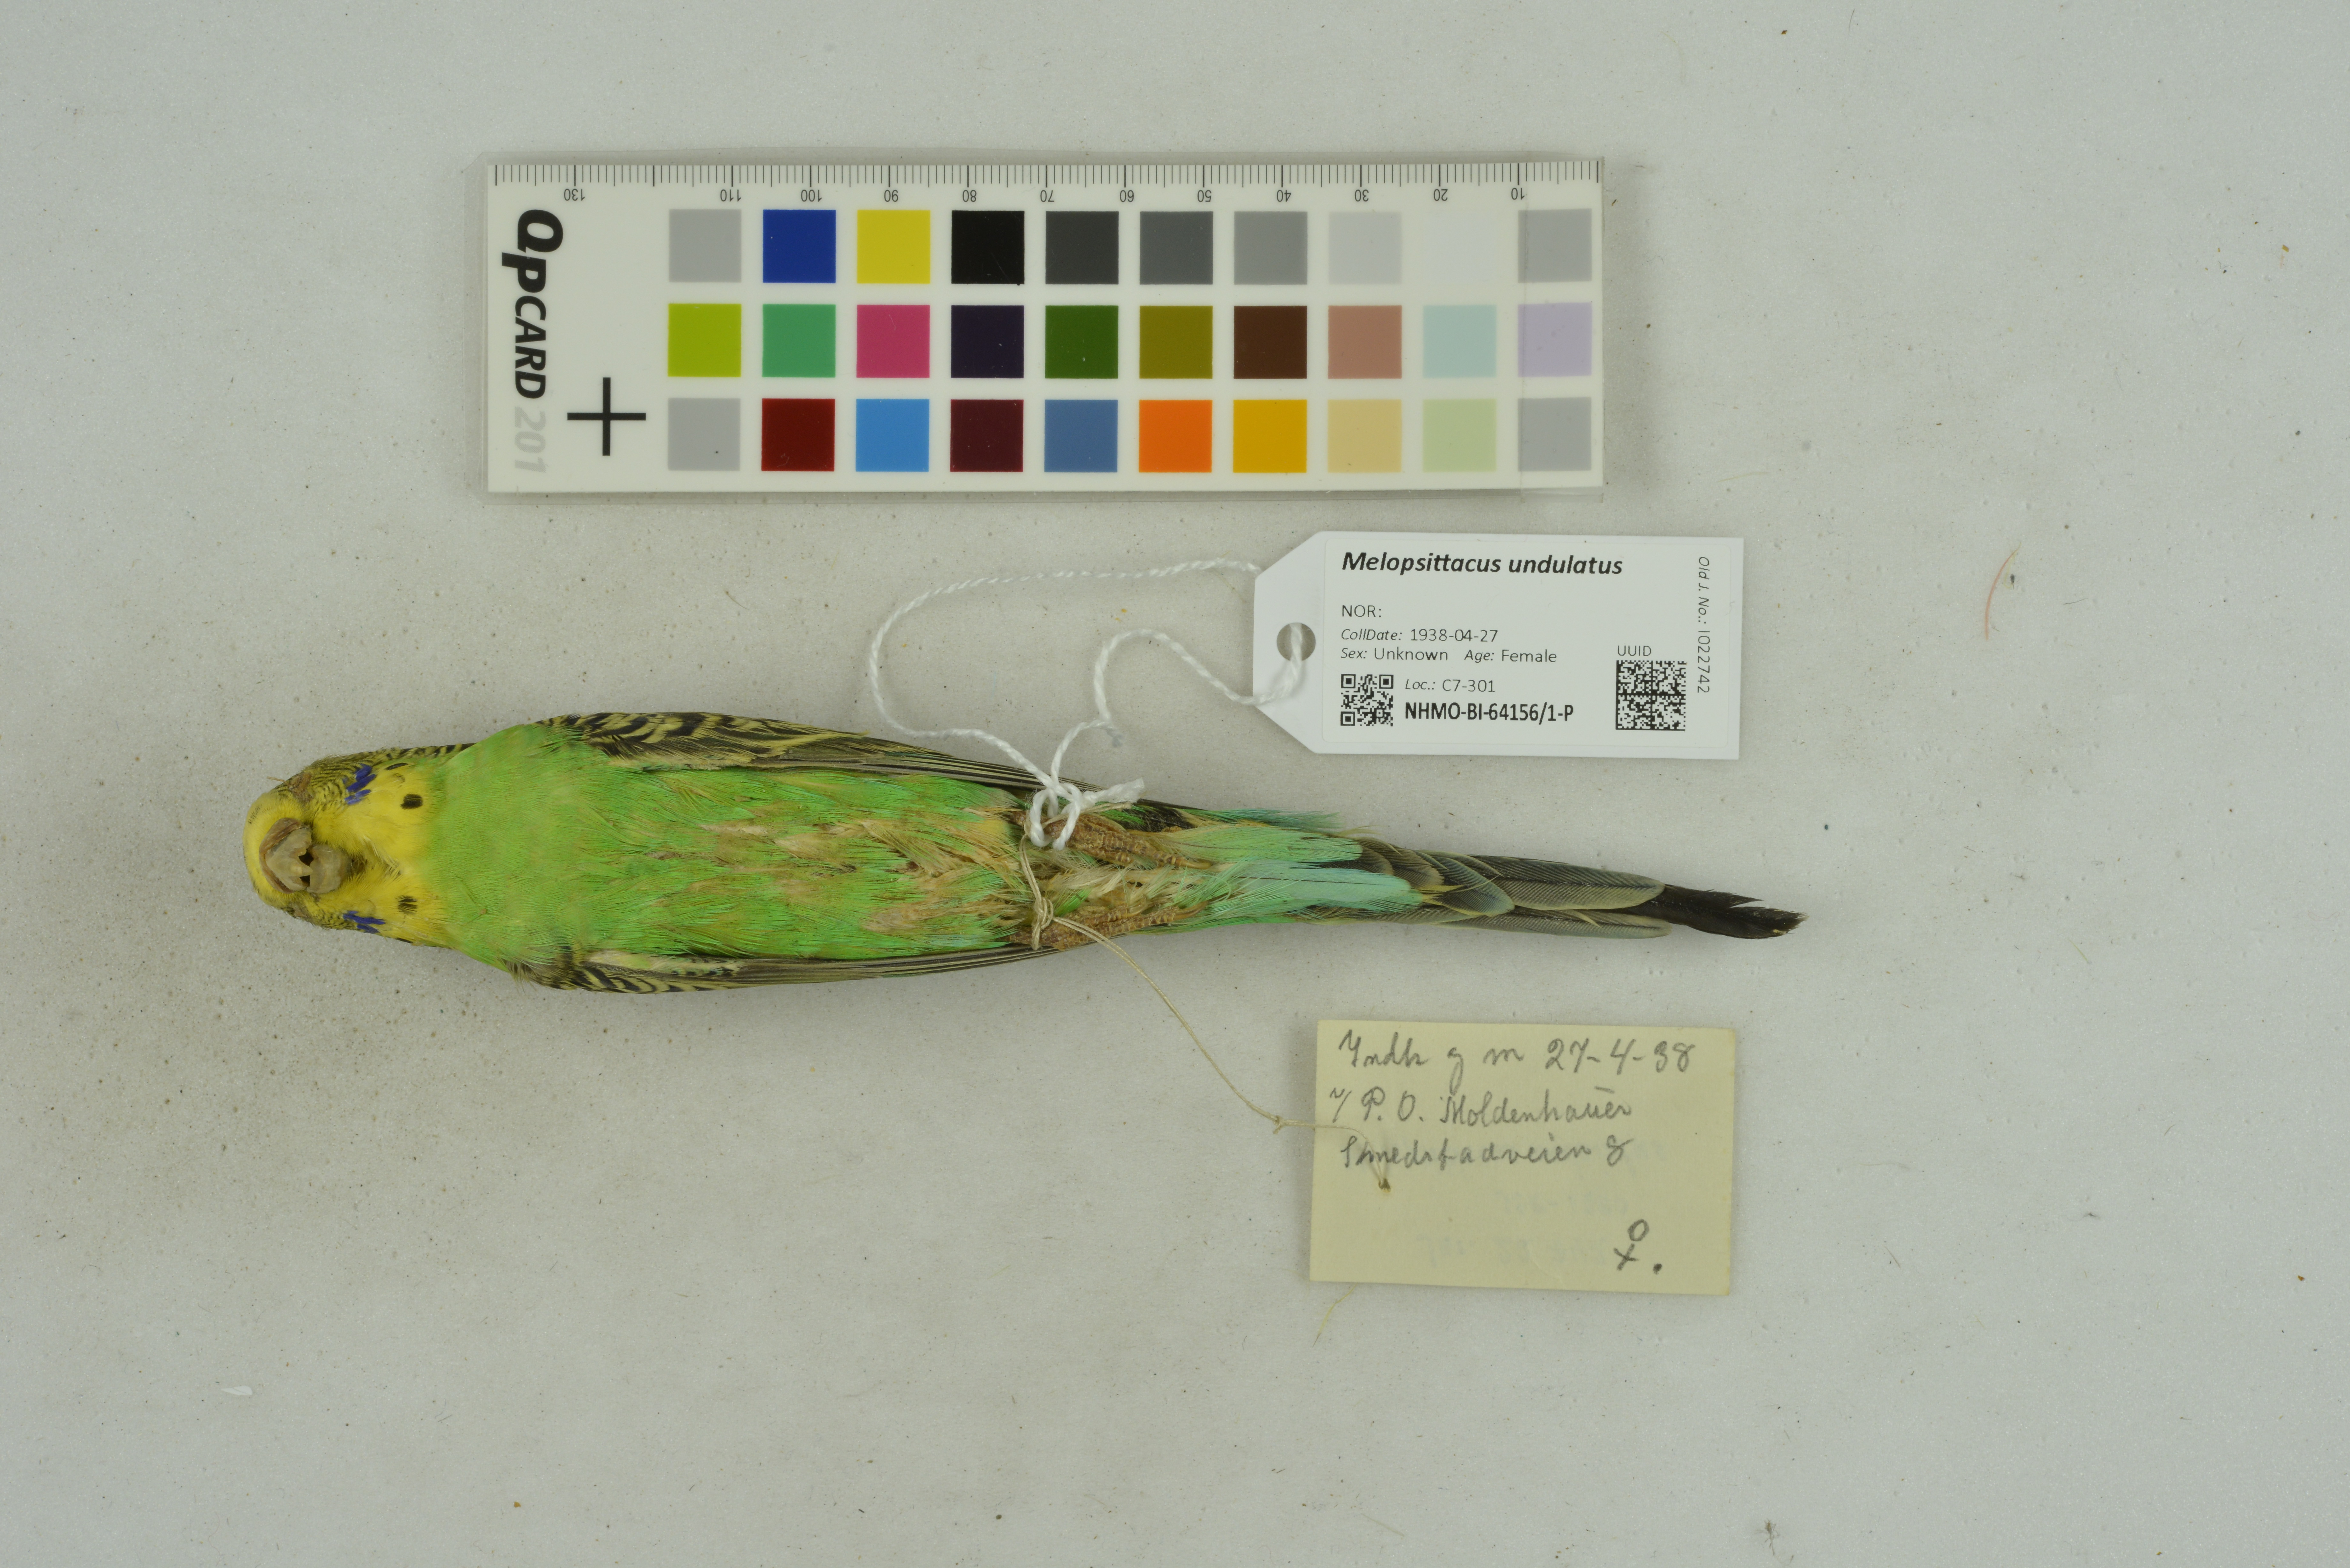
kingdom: Animalia
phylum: Chordata
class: Aves
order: Psittaciformes
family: Psittacidae
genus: Melopsittacus
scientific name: Melopsittacus undulatus
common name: Budgerigar
